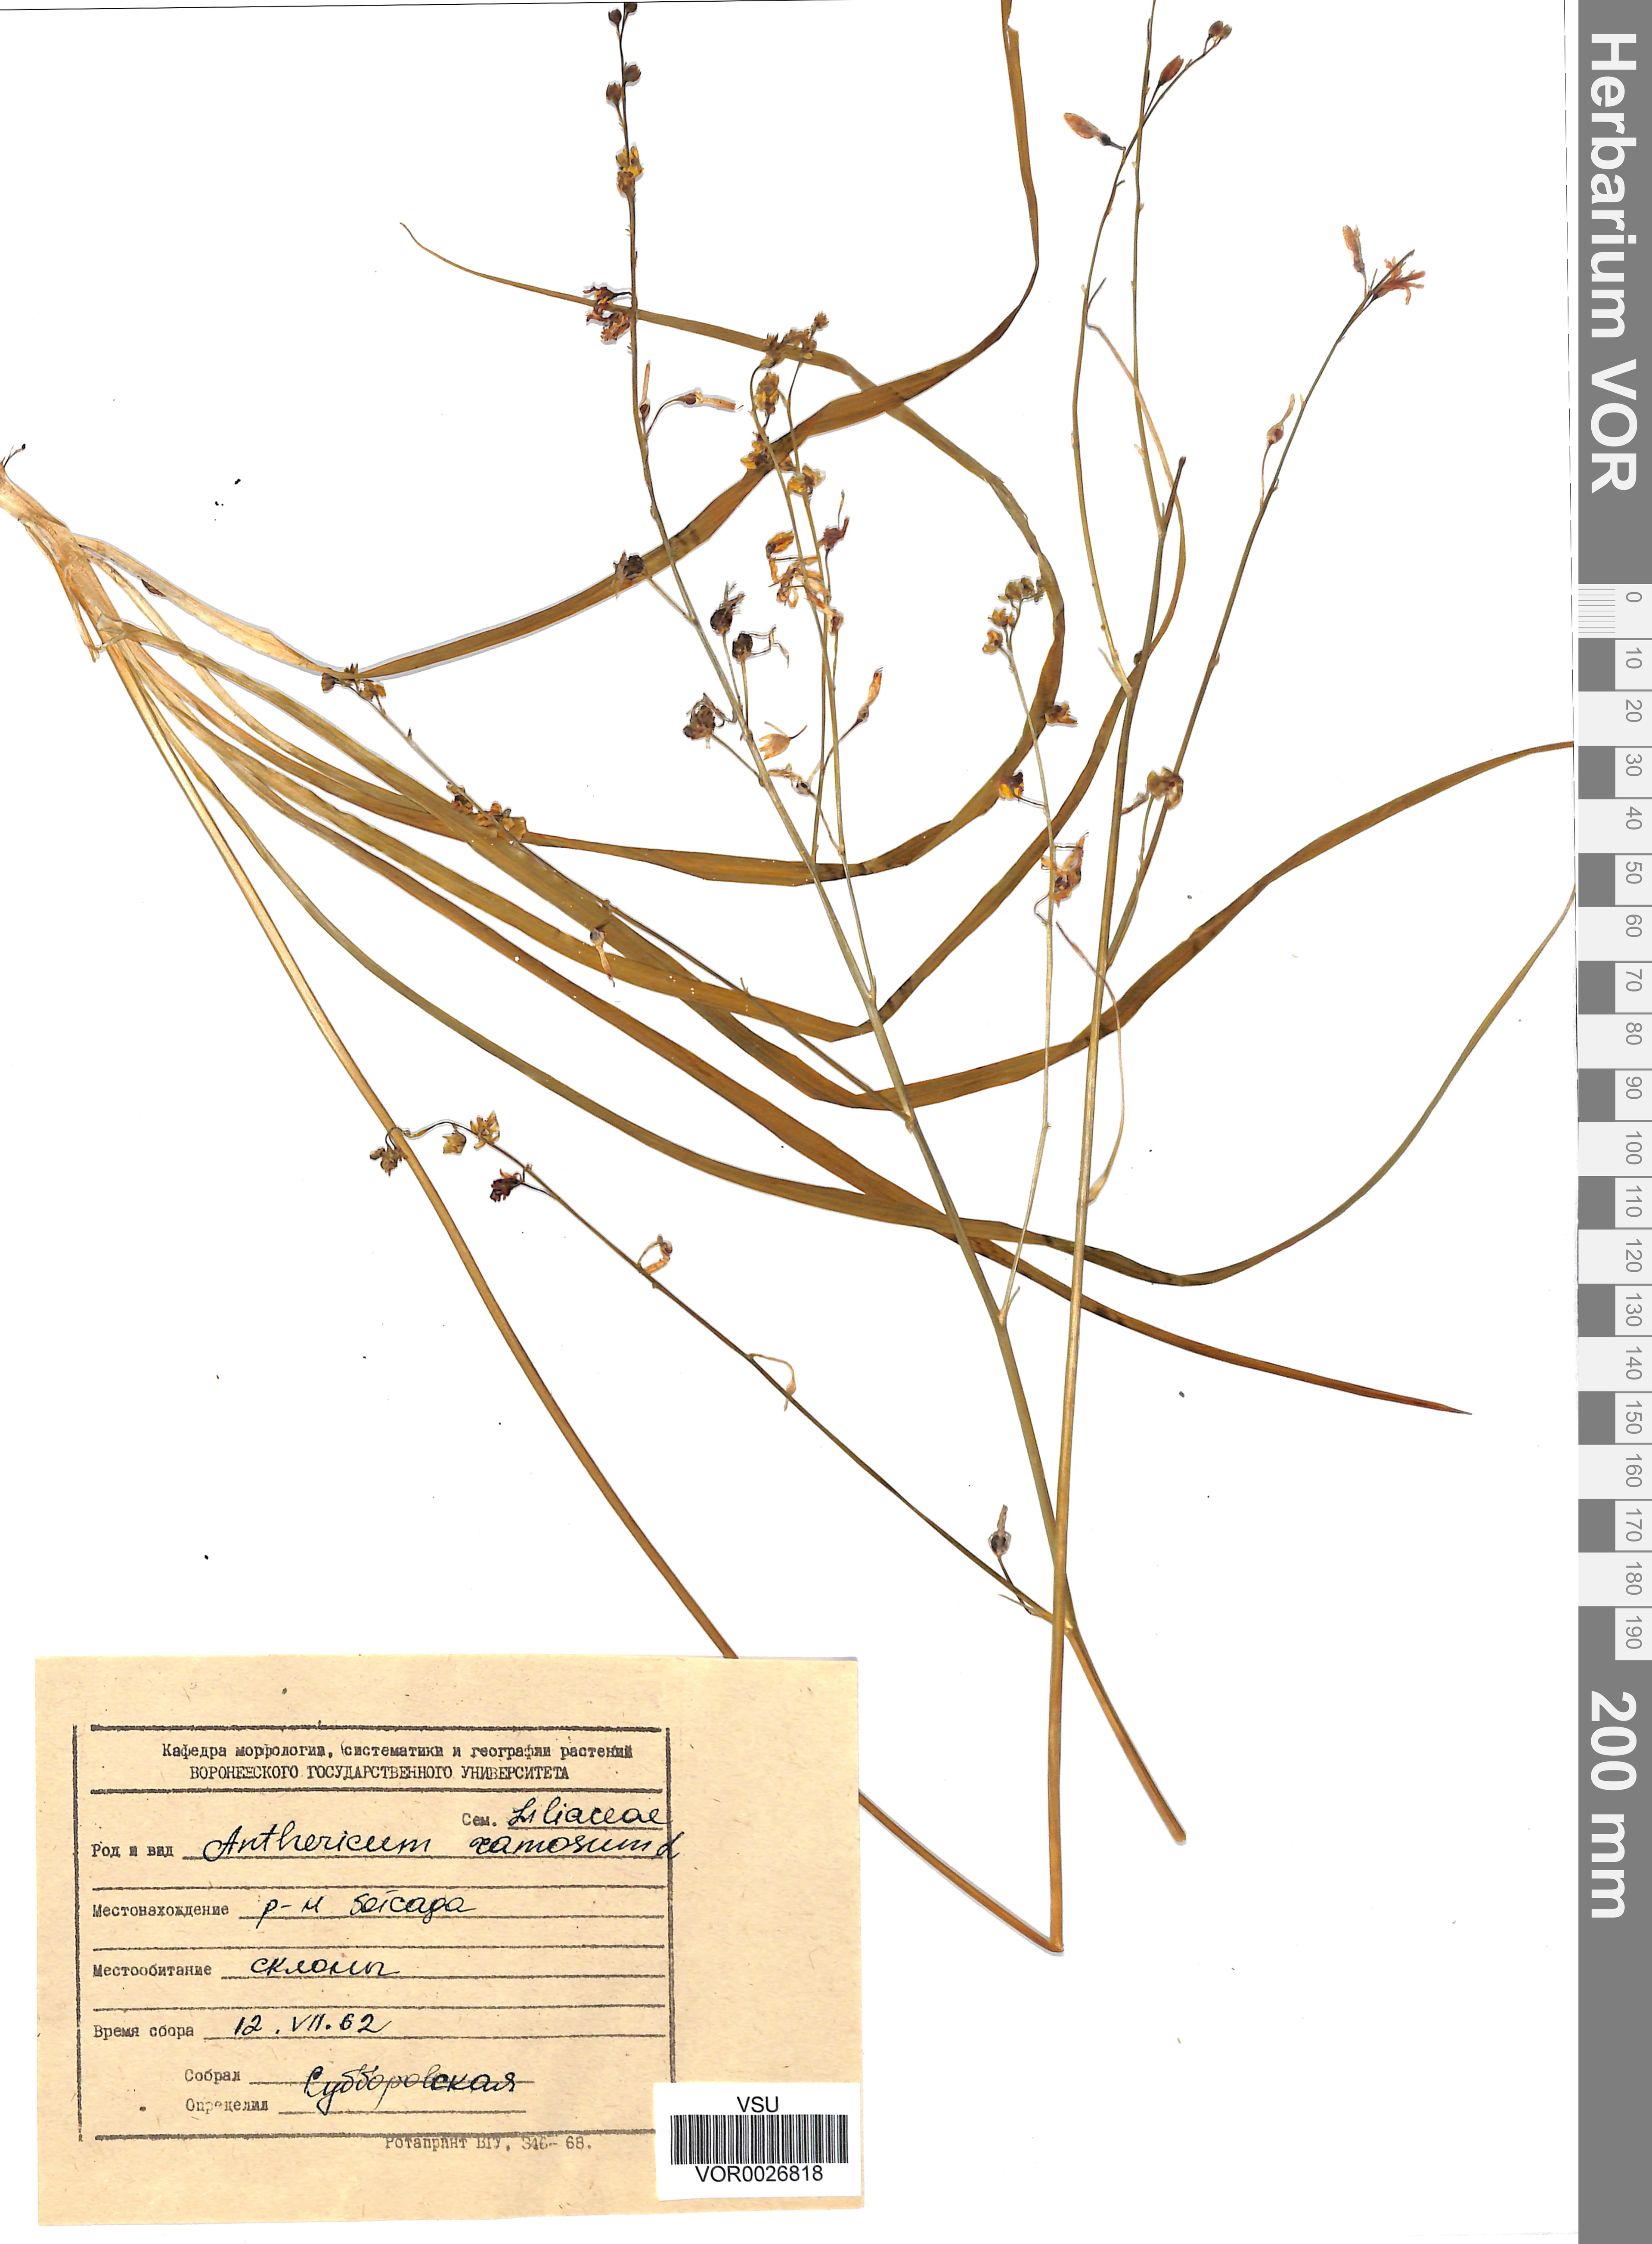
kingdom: Plantae
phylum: Tracheophyta
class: Liliopsida
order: Asparagales
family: Asparagaceae
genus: Anthericum
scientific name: Anthericum ramosum
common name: Branched st. bernard's-lily
